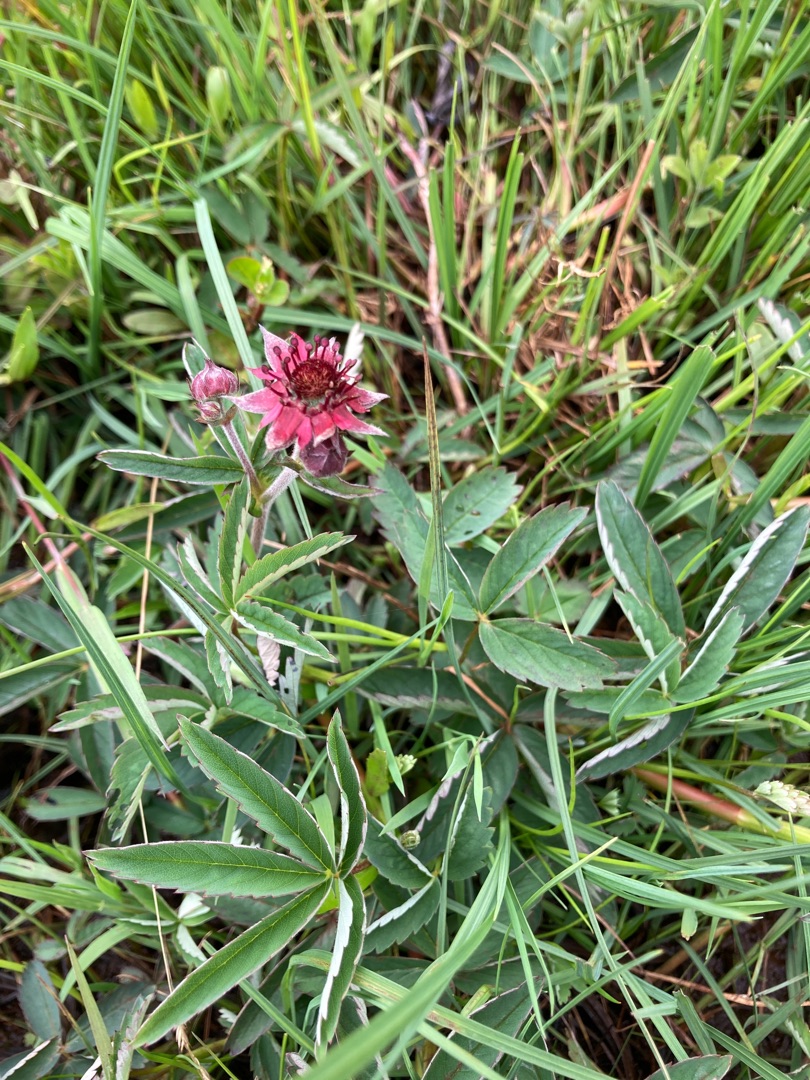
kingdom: Plantae
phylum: Tracheophyta
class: Magnoliopsida
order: Rosales
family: Rosaceae
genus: Comarum
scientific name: Comarum palustre
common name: Kragefod
